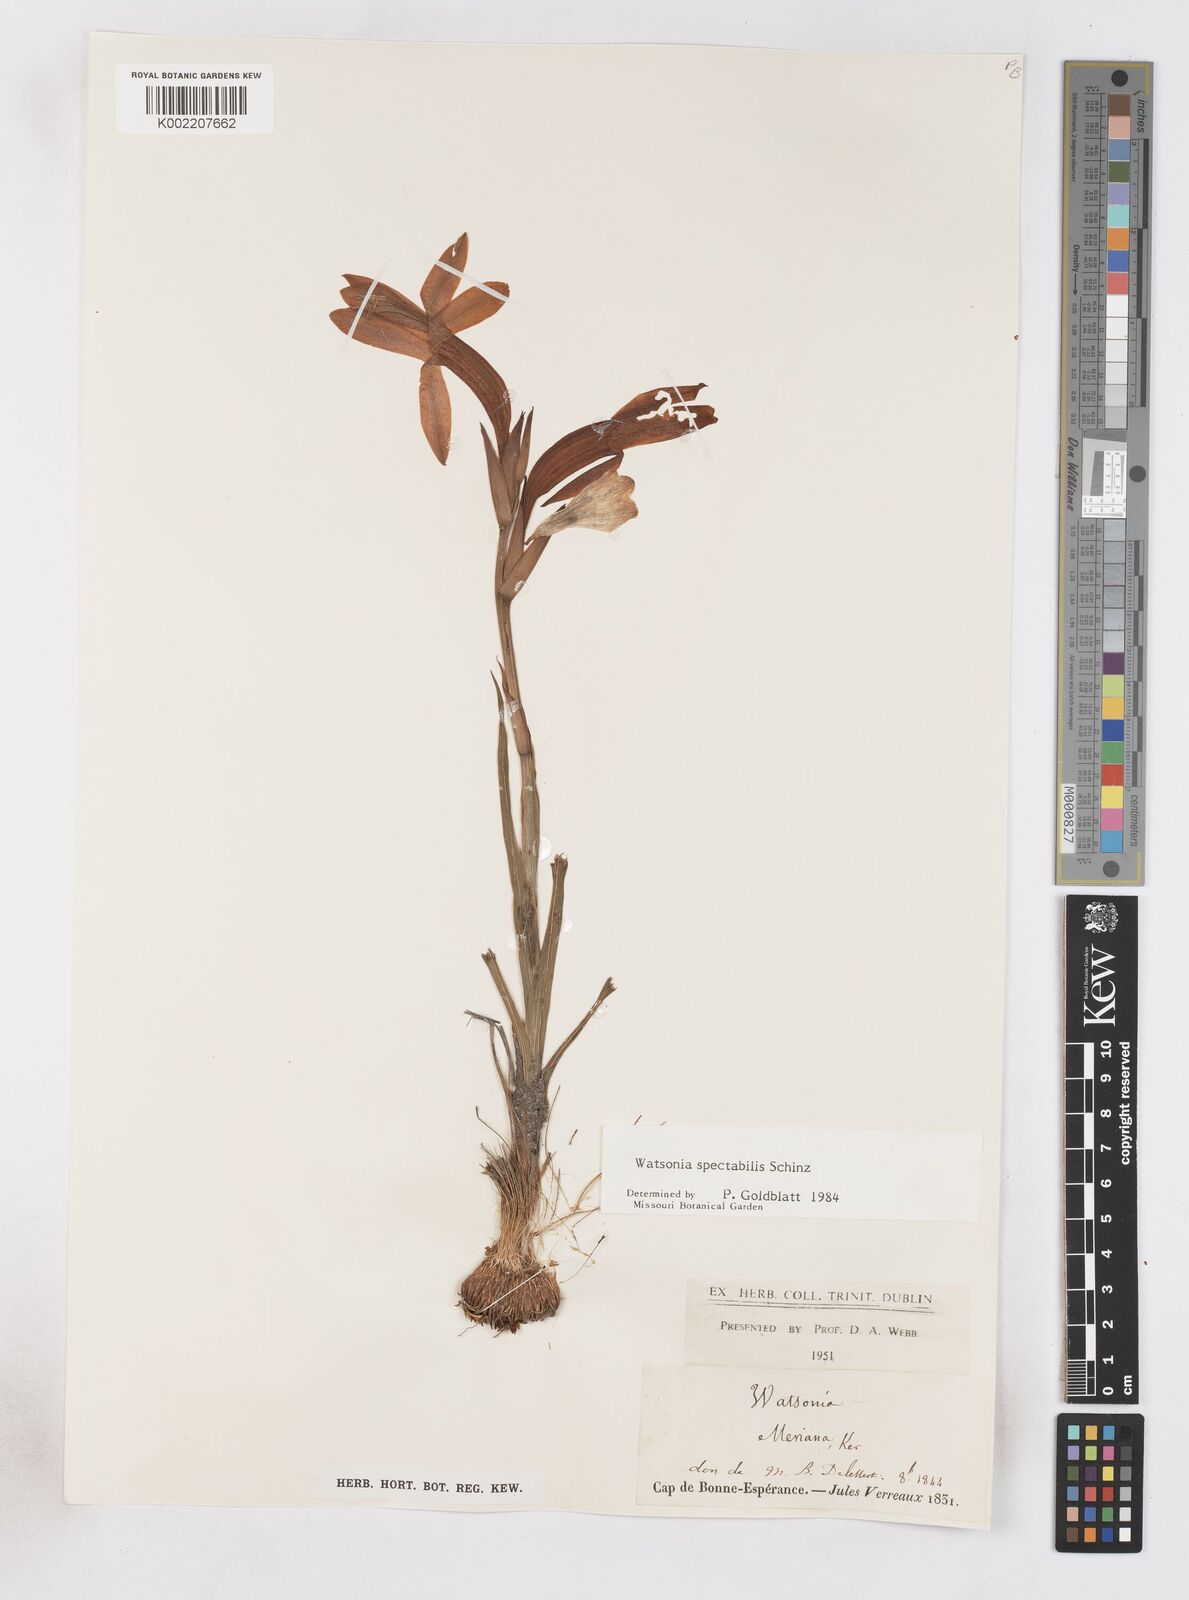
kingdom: Plantae
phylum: Tracheophyta
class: Liliopsida
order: Asparagales
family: Iridaceae
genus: Watsonia
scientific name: Watsonia spectabilis
